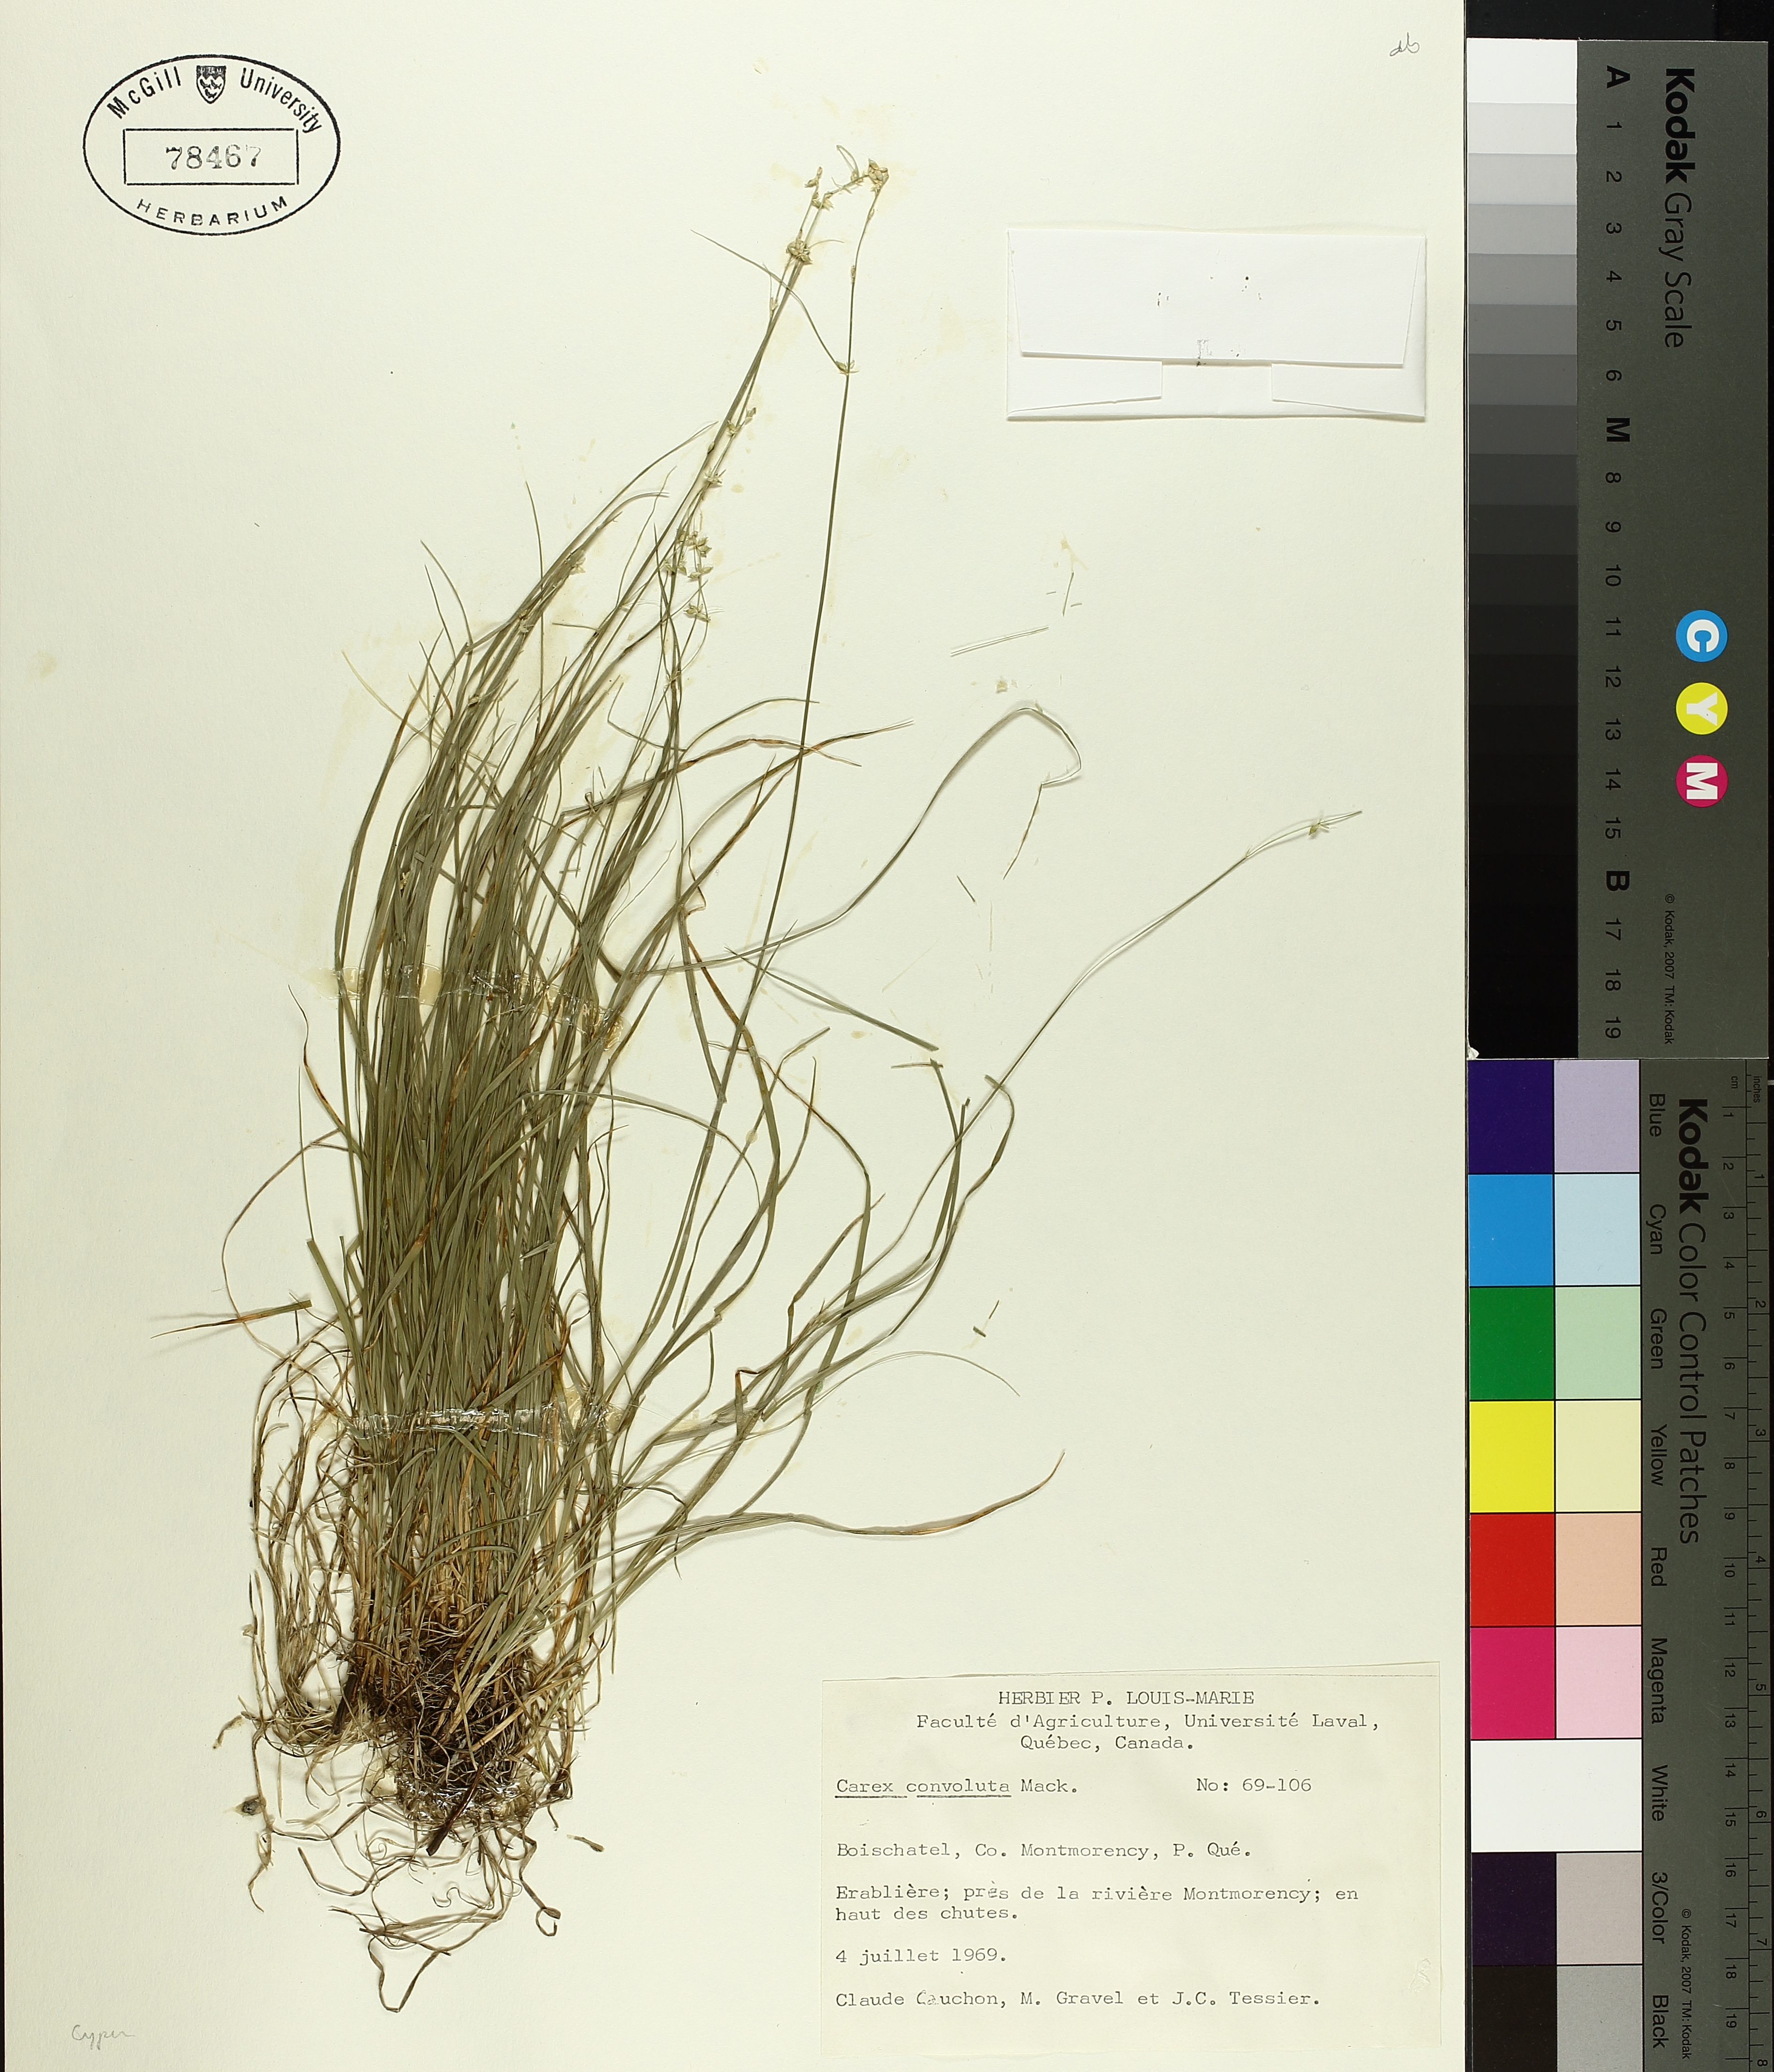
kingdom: Plantae
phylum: Tracheophyta
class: Liliopsida
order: Poales
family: Cyperaceae
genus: Carex
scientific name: Carex rosea
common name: Curly-styled wood sedge
